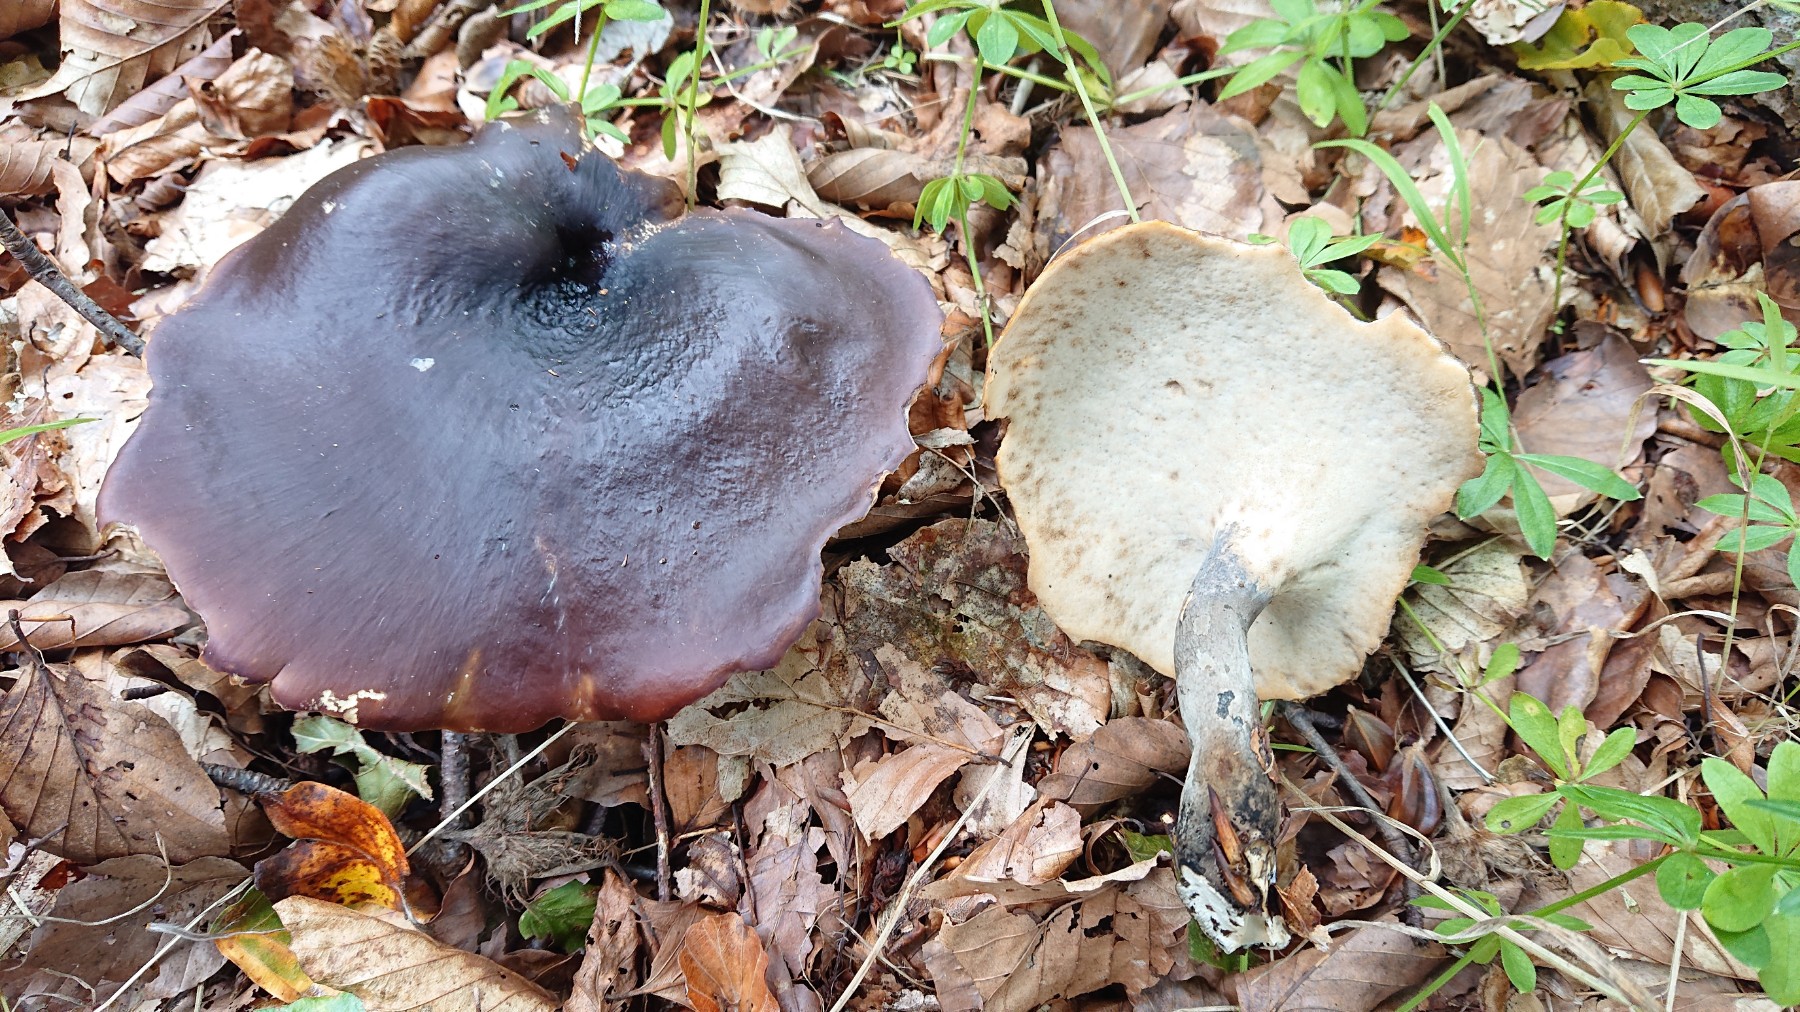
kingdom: Fungi
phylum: Basidiomycota
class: Agaricomycetes
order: Polyporales
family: Polyporaceae
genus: Picipes
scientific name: Picipes badius
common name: kastaniebrun stilkporesvamp
